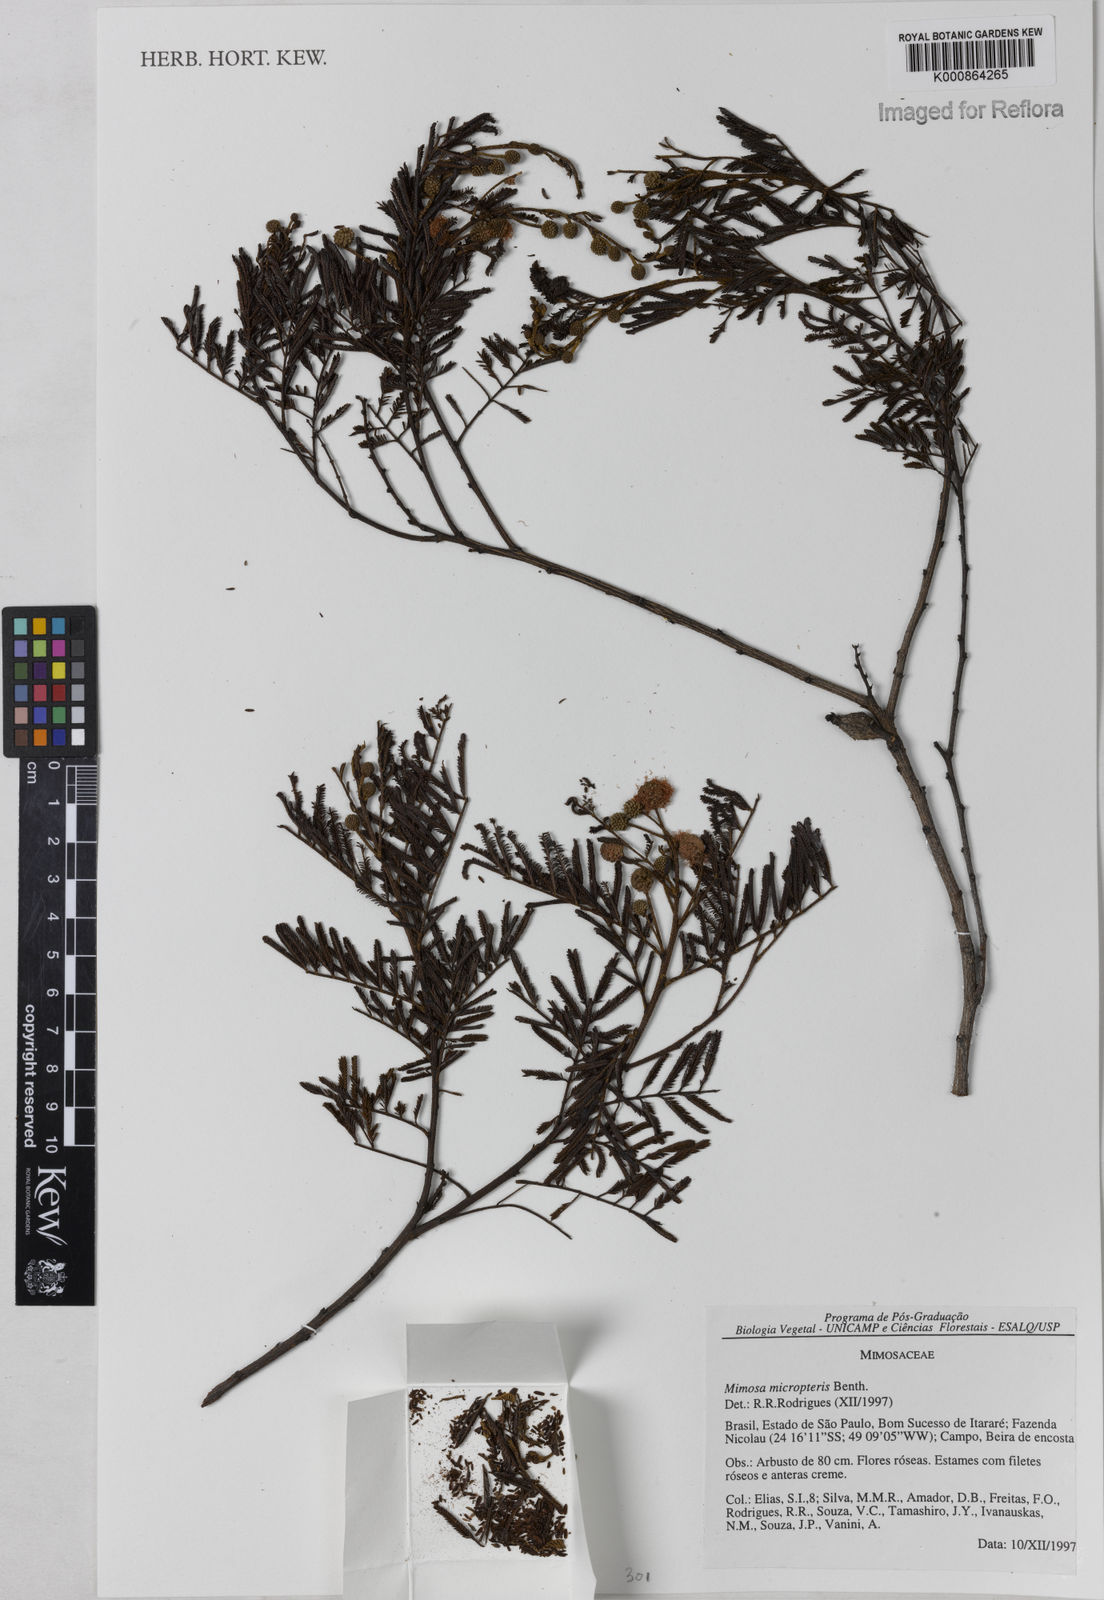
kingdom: Plantae
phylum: Tracheophyta
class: Magnoliopsida
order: Fabales
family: Fabaceae
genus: Mimosa
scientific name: Mimosa micropteris
